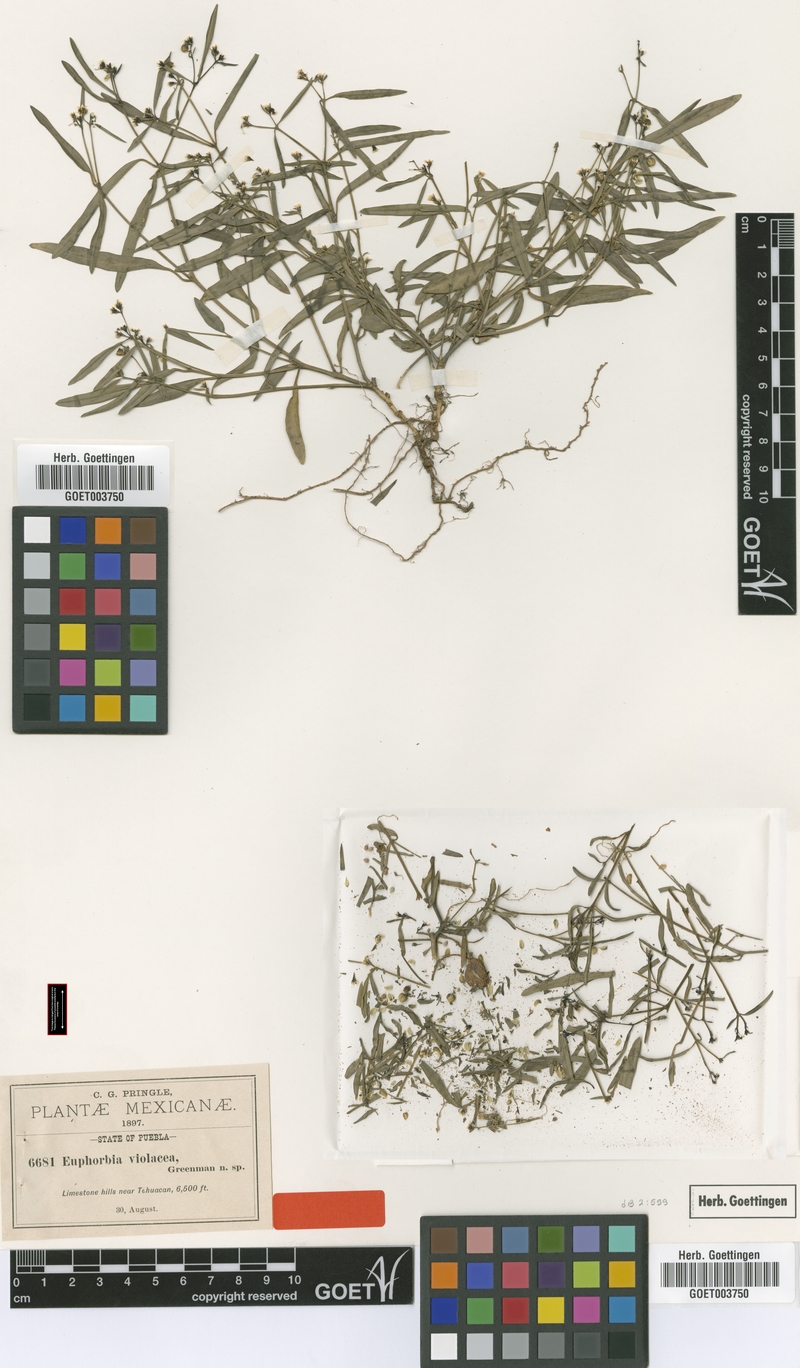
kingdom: Plantae
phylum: Tracheophyta
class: Magnoliopsida
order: Malpighiales
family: Euphorbiaceae
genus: Euphorbia
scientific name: Euphorbia violacea
